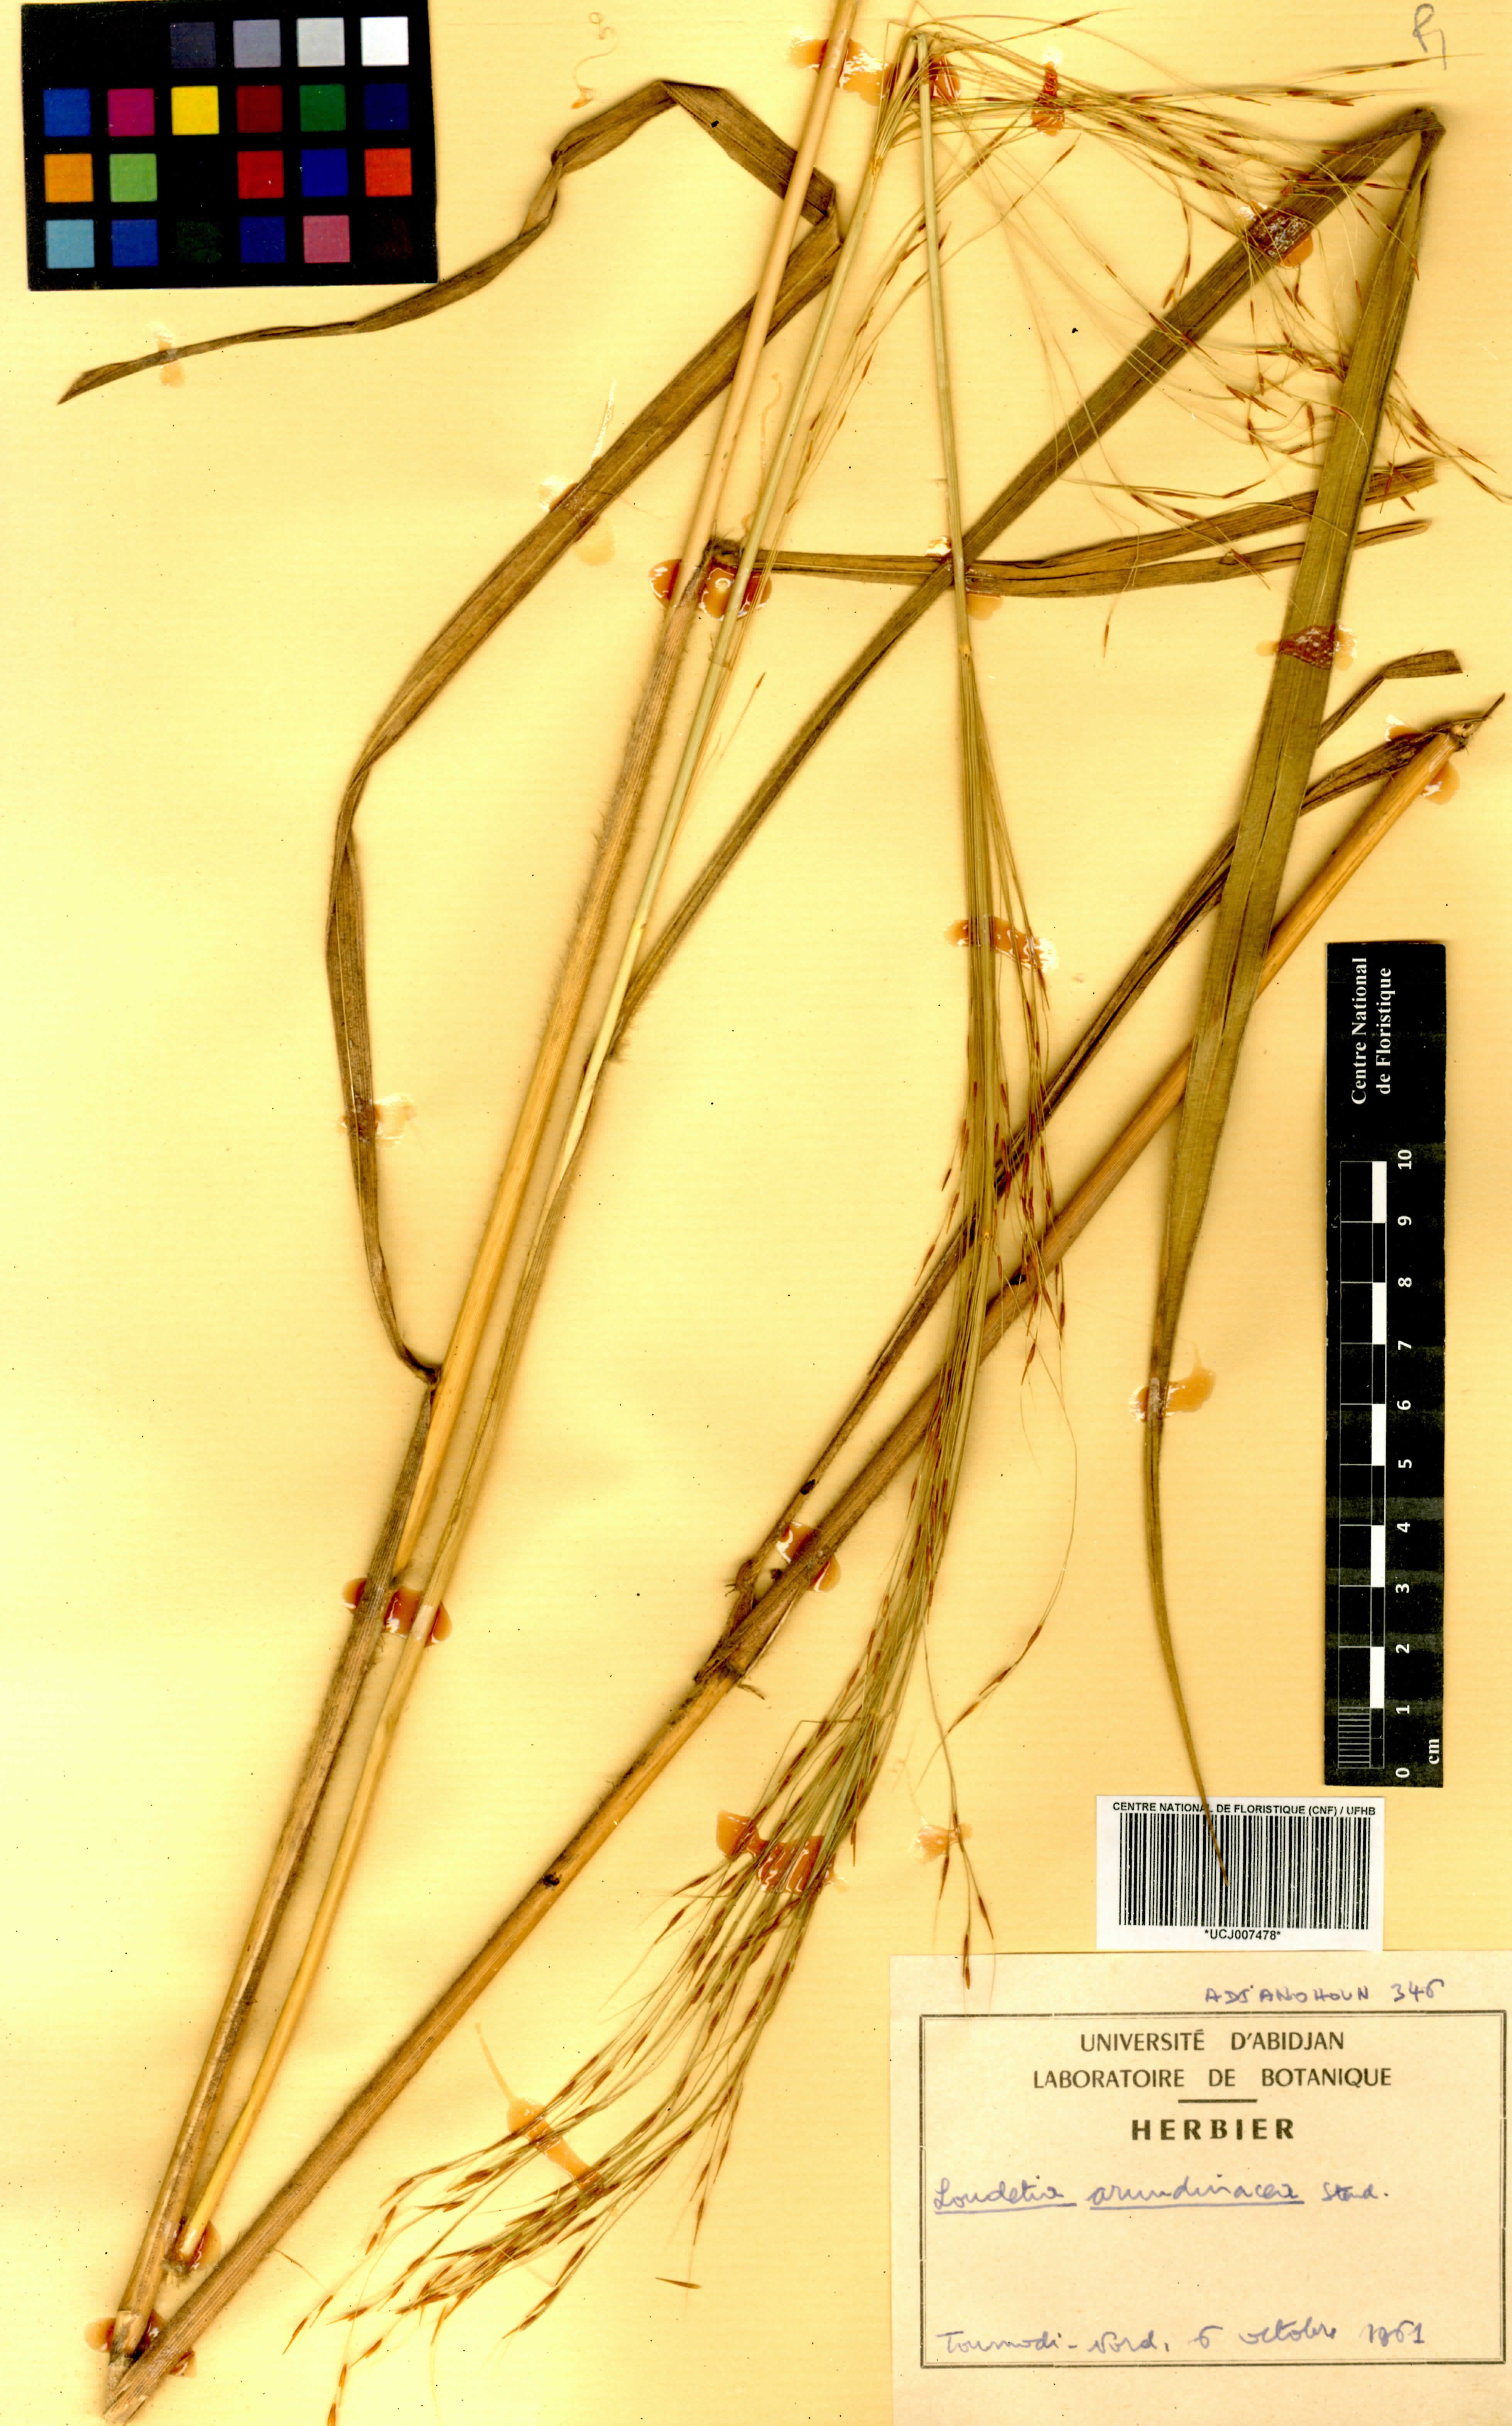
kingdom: Plantae
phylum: Tracheophyta
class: Liliopsida
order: Poales
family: Poaceae
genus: Loudetia
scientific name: Loudetia arundinacea
